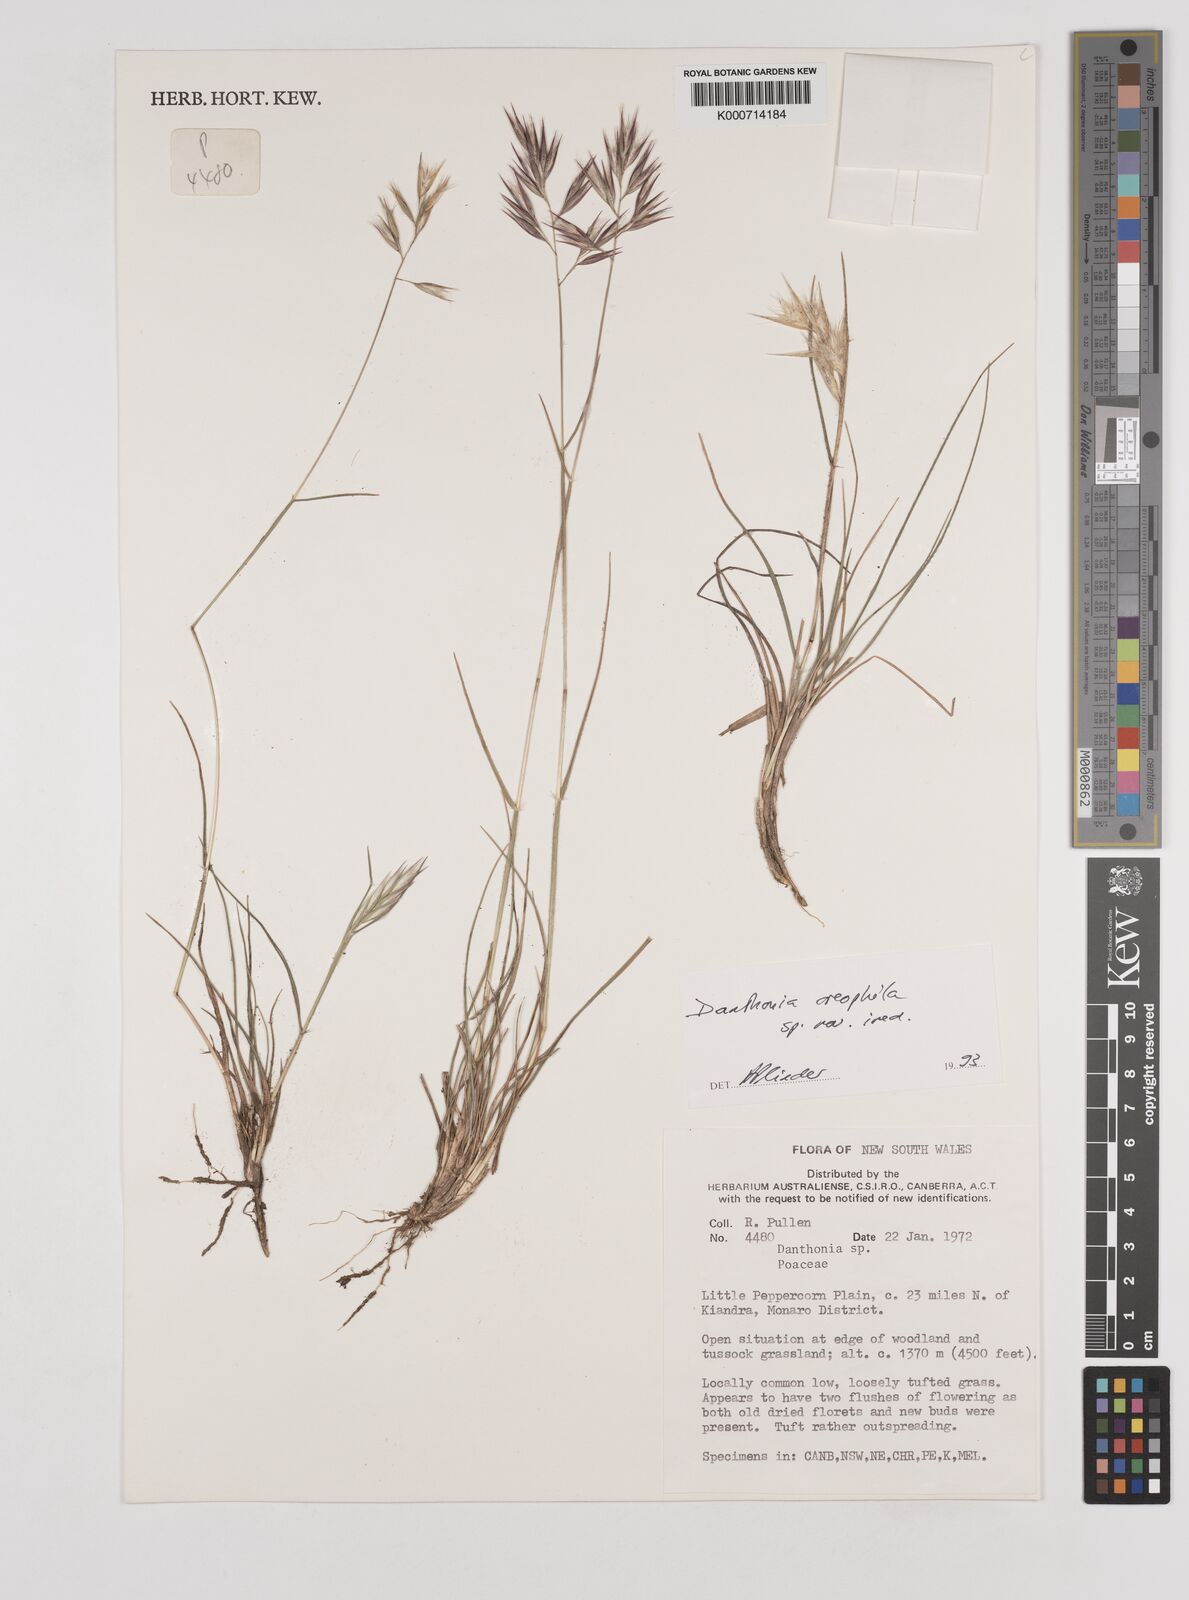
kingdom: Plantae
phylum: Tracheophyta
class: Liliopsida
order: Poales
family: Poaceae
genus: Rytidosperma
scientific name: Rytidosperma
